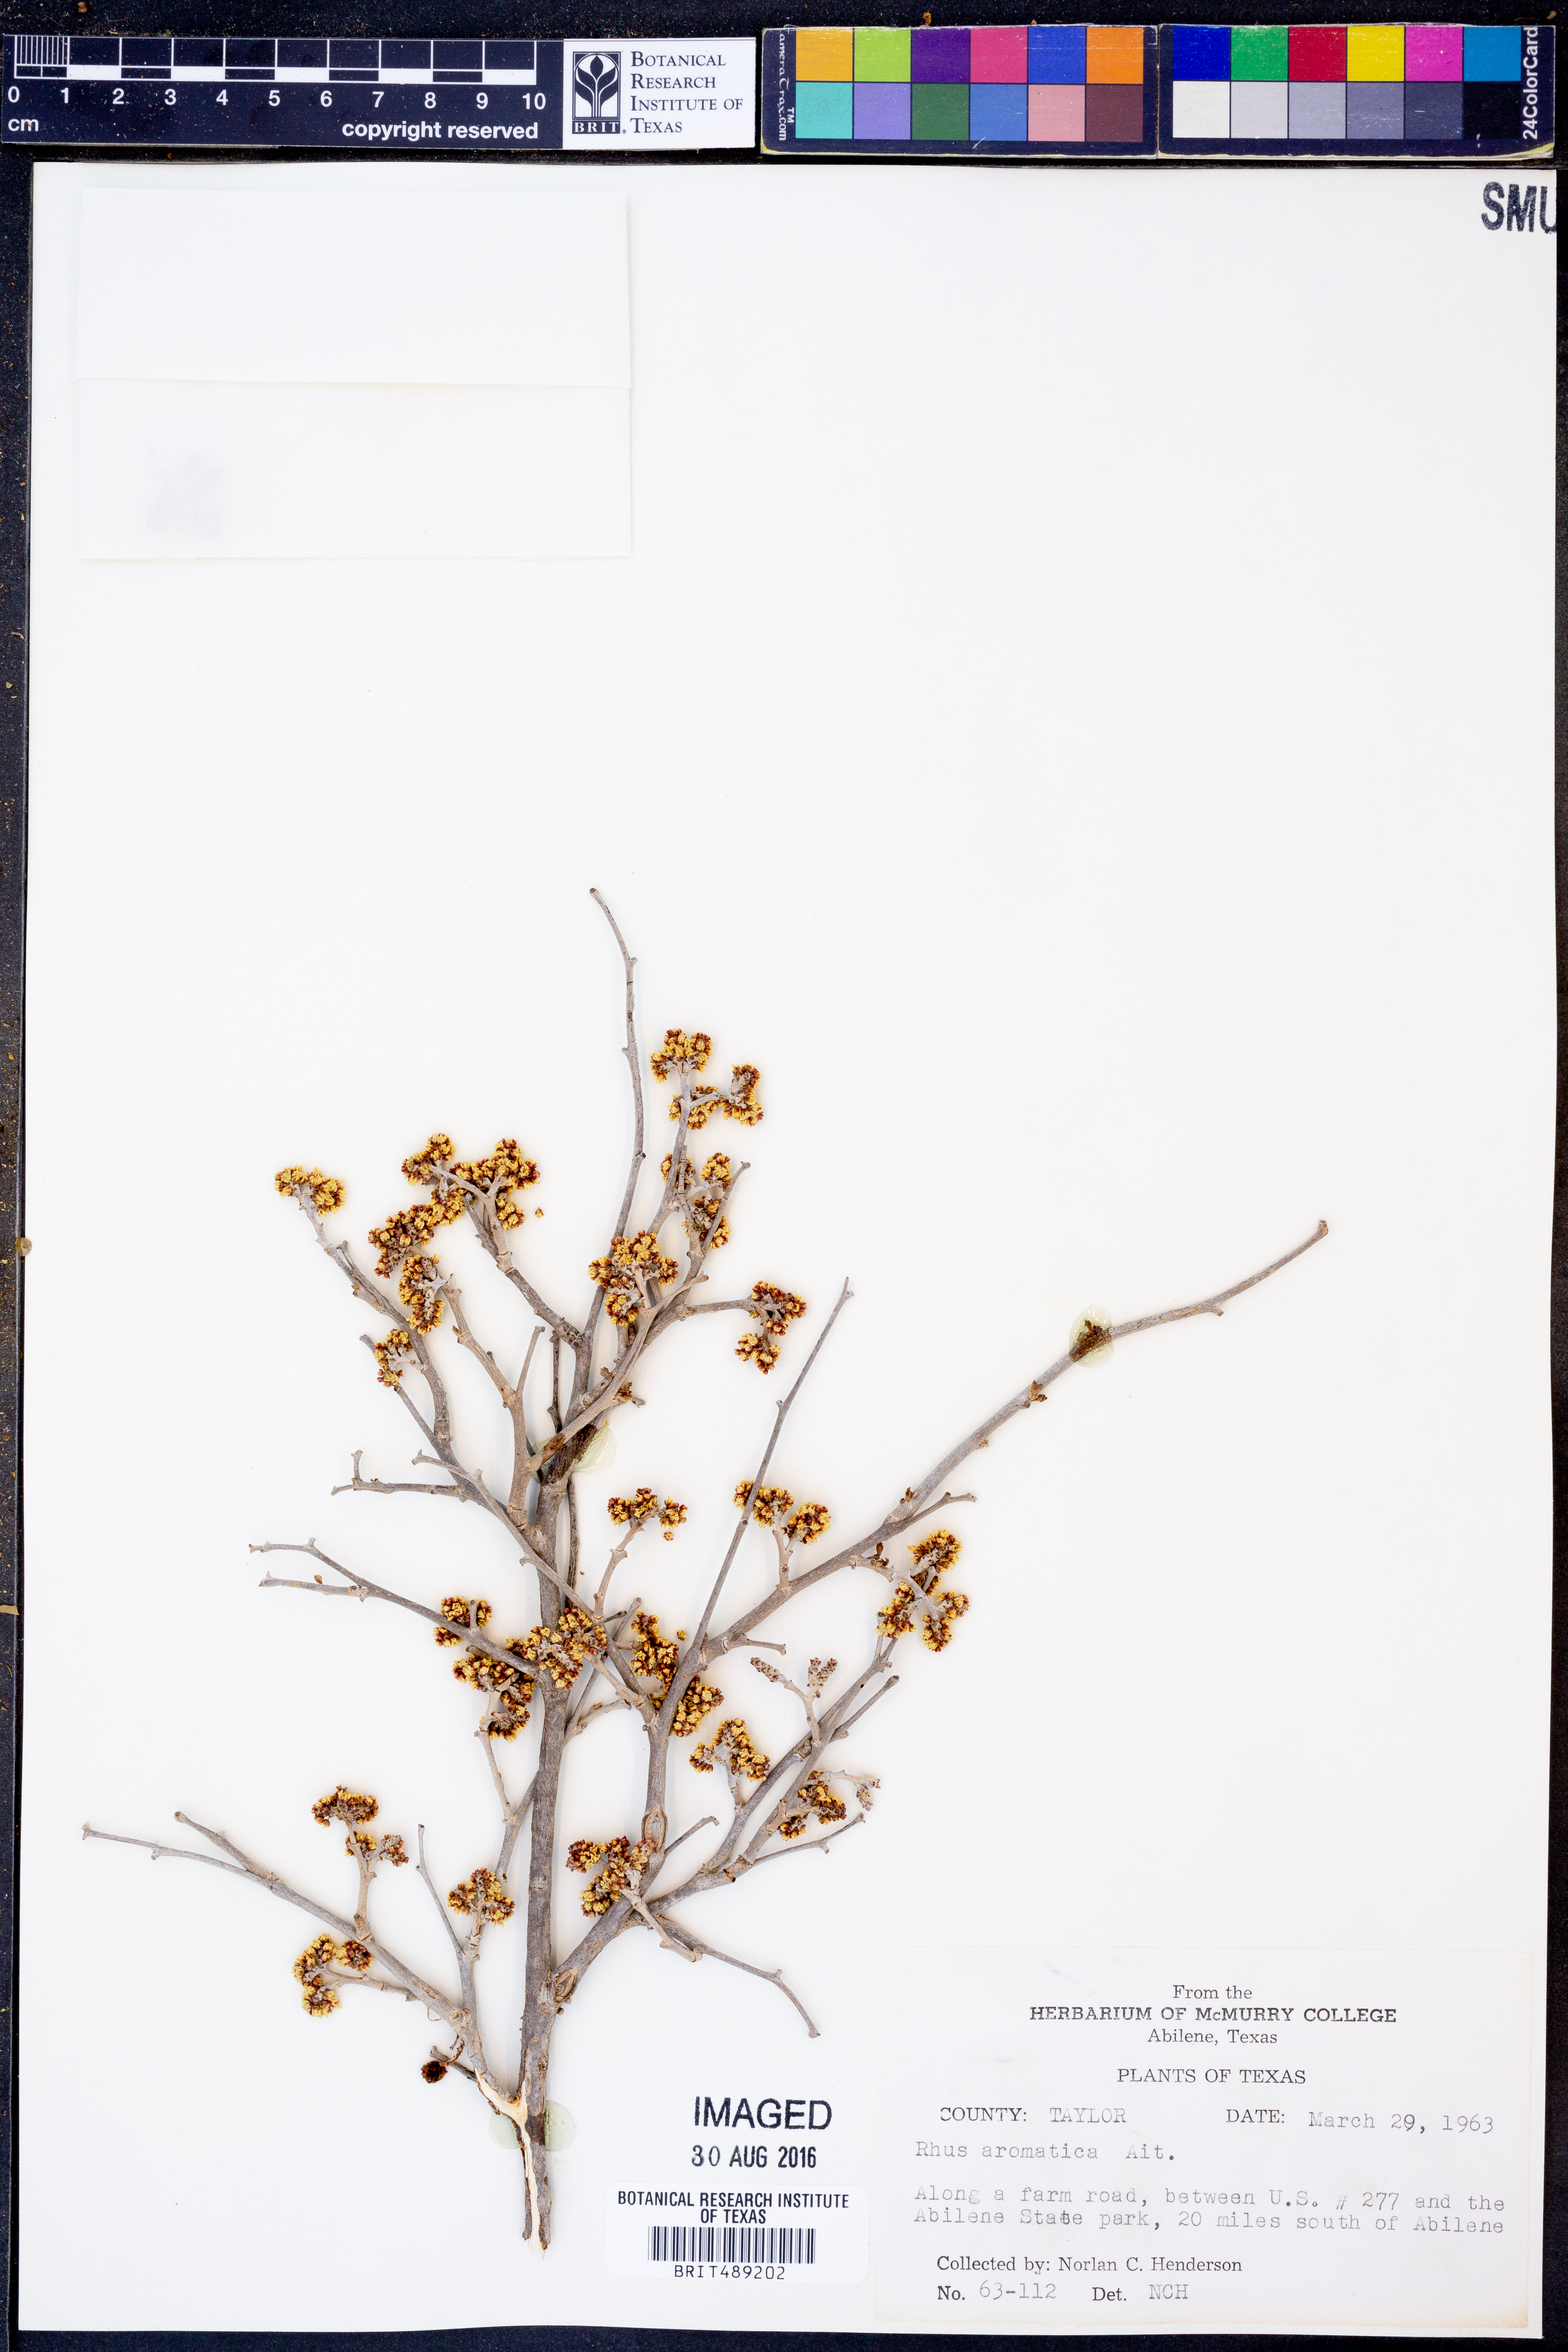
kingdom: Plantae
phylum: Tracheophyta
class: Magnoliopsida
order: Sapindales
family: Anacardiaceae
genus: Rhus
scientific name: Rhus aromatica
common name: Aromatic sumac
